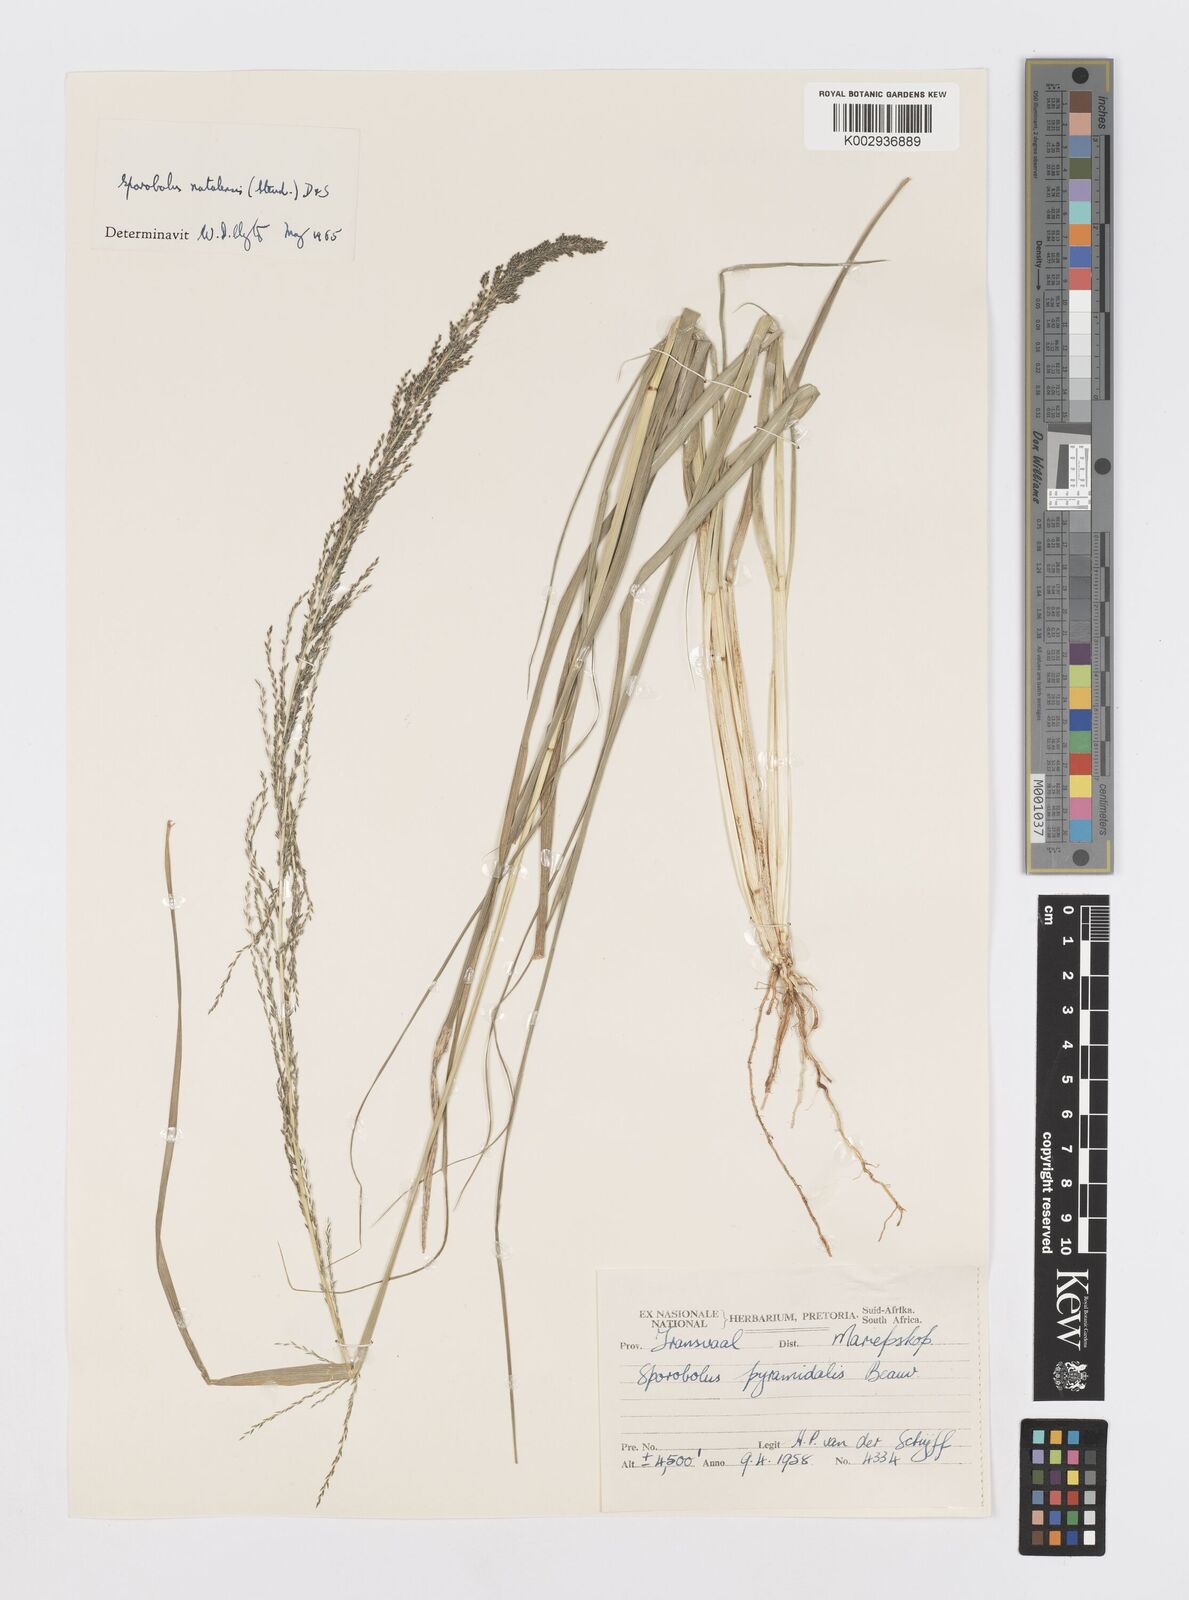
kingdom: Plantae
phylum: Tracheophyta
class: Liliopsida
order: Poales
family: Poaceae
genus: Sporobolus
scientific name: Sporobolus natalensis
